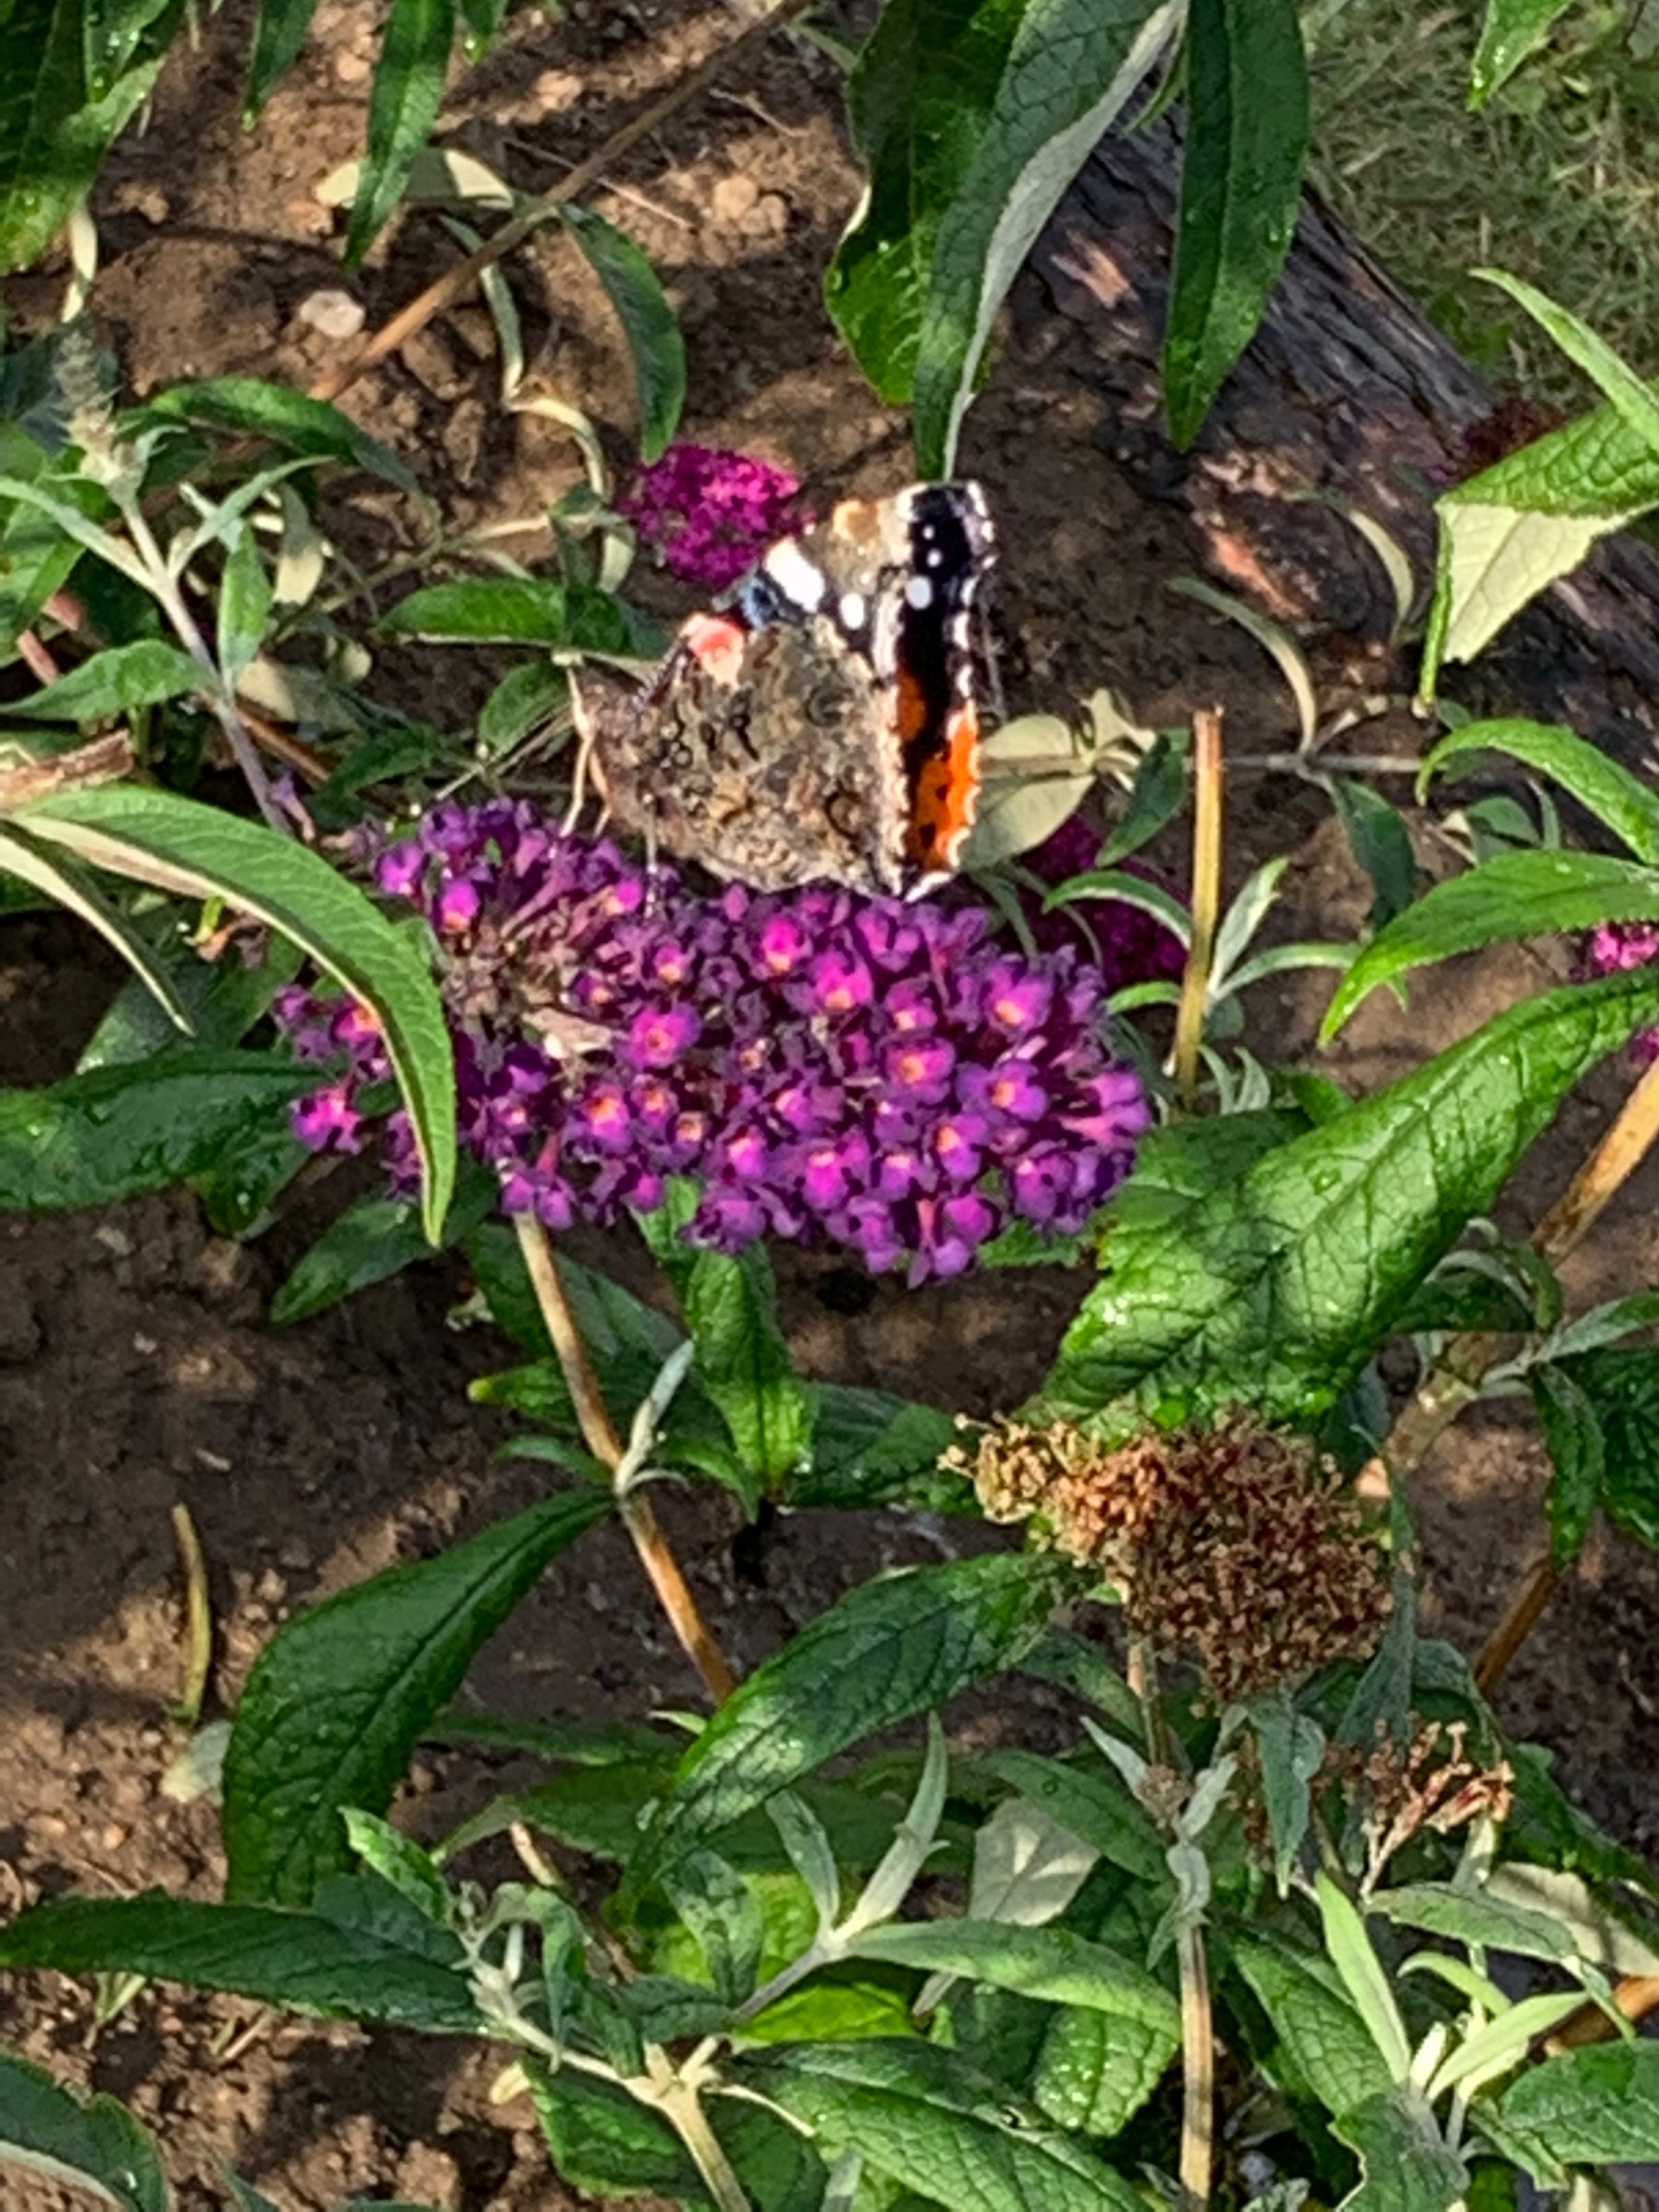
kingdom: Animalia
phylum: Arthropoda
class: Insecta
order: Lepidoptera
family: Nymphalidae
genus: Vanessa
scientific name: Vanessa atalanta
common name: Admiral
